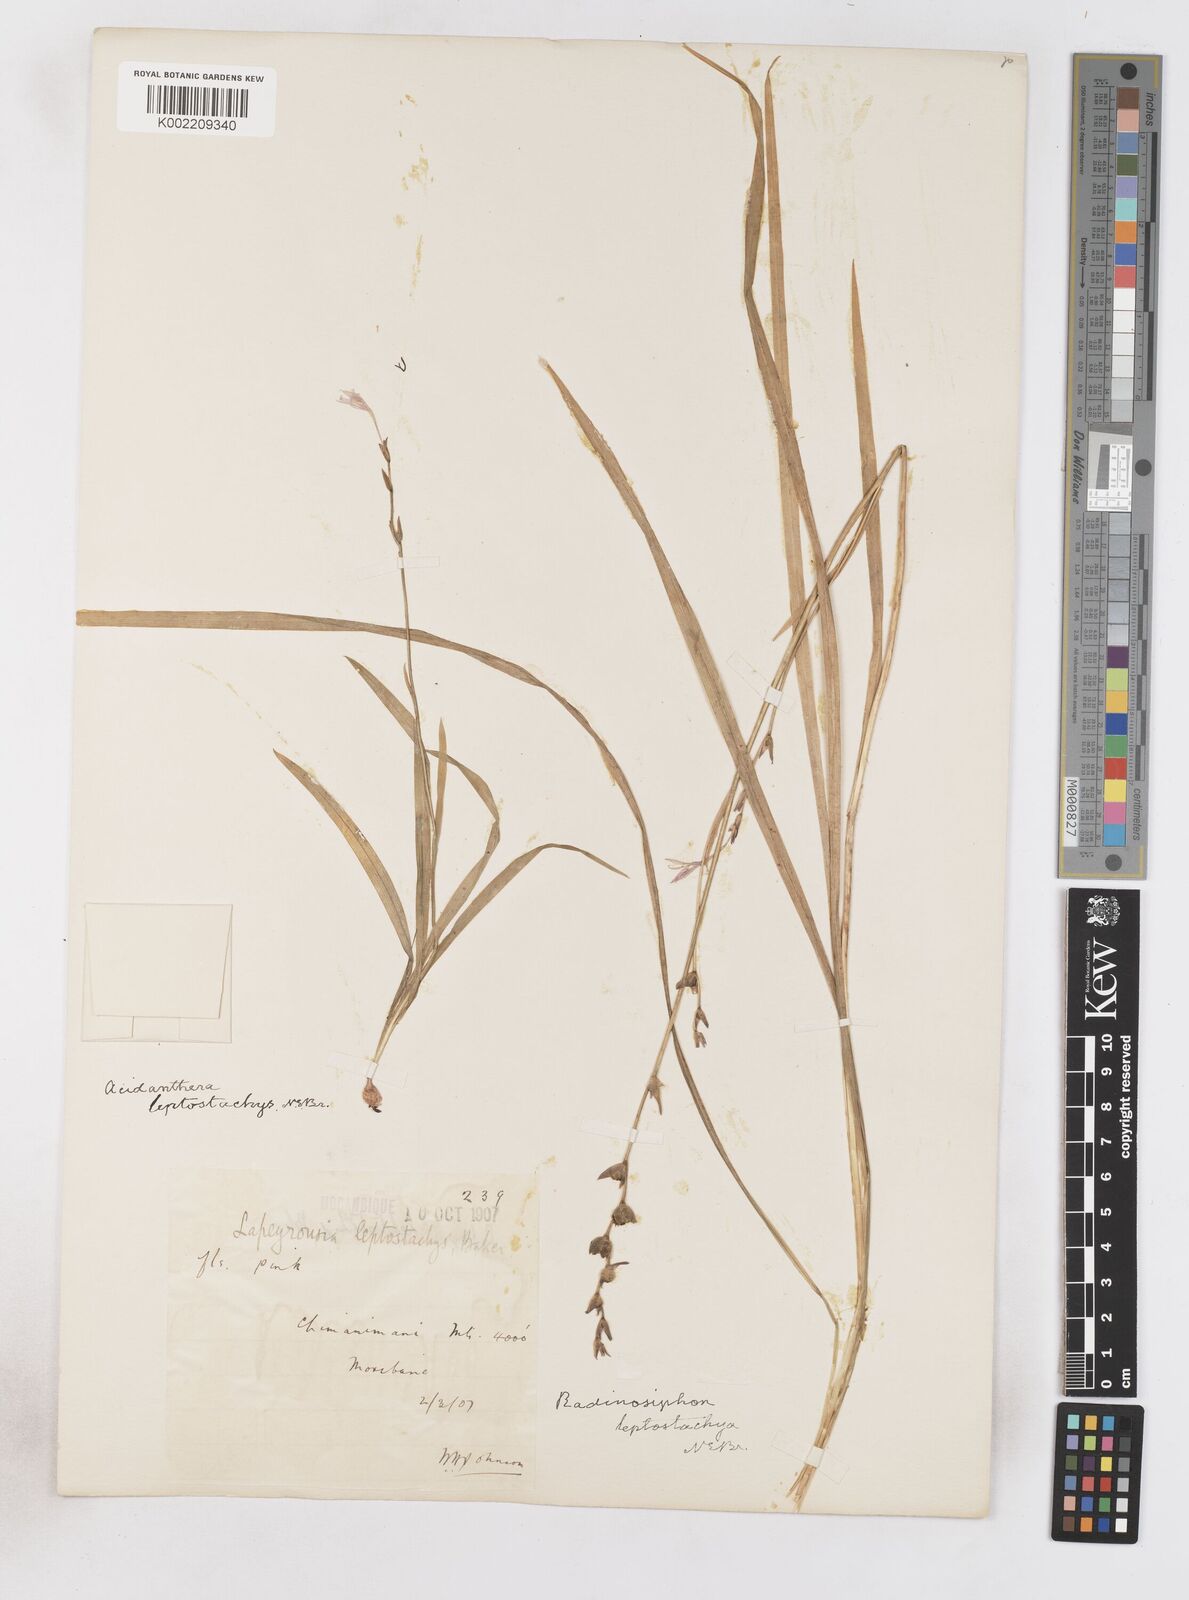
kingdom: Plantae
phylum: Tracheophyta
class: Liliopsida
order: Asparagales
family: Iridaceae
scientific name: Iridaceae
